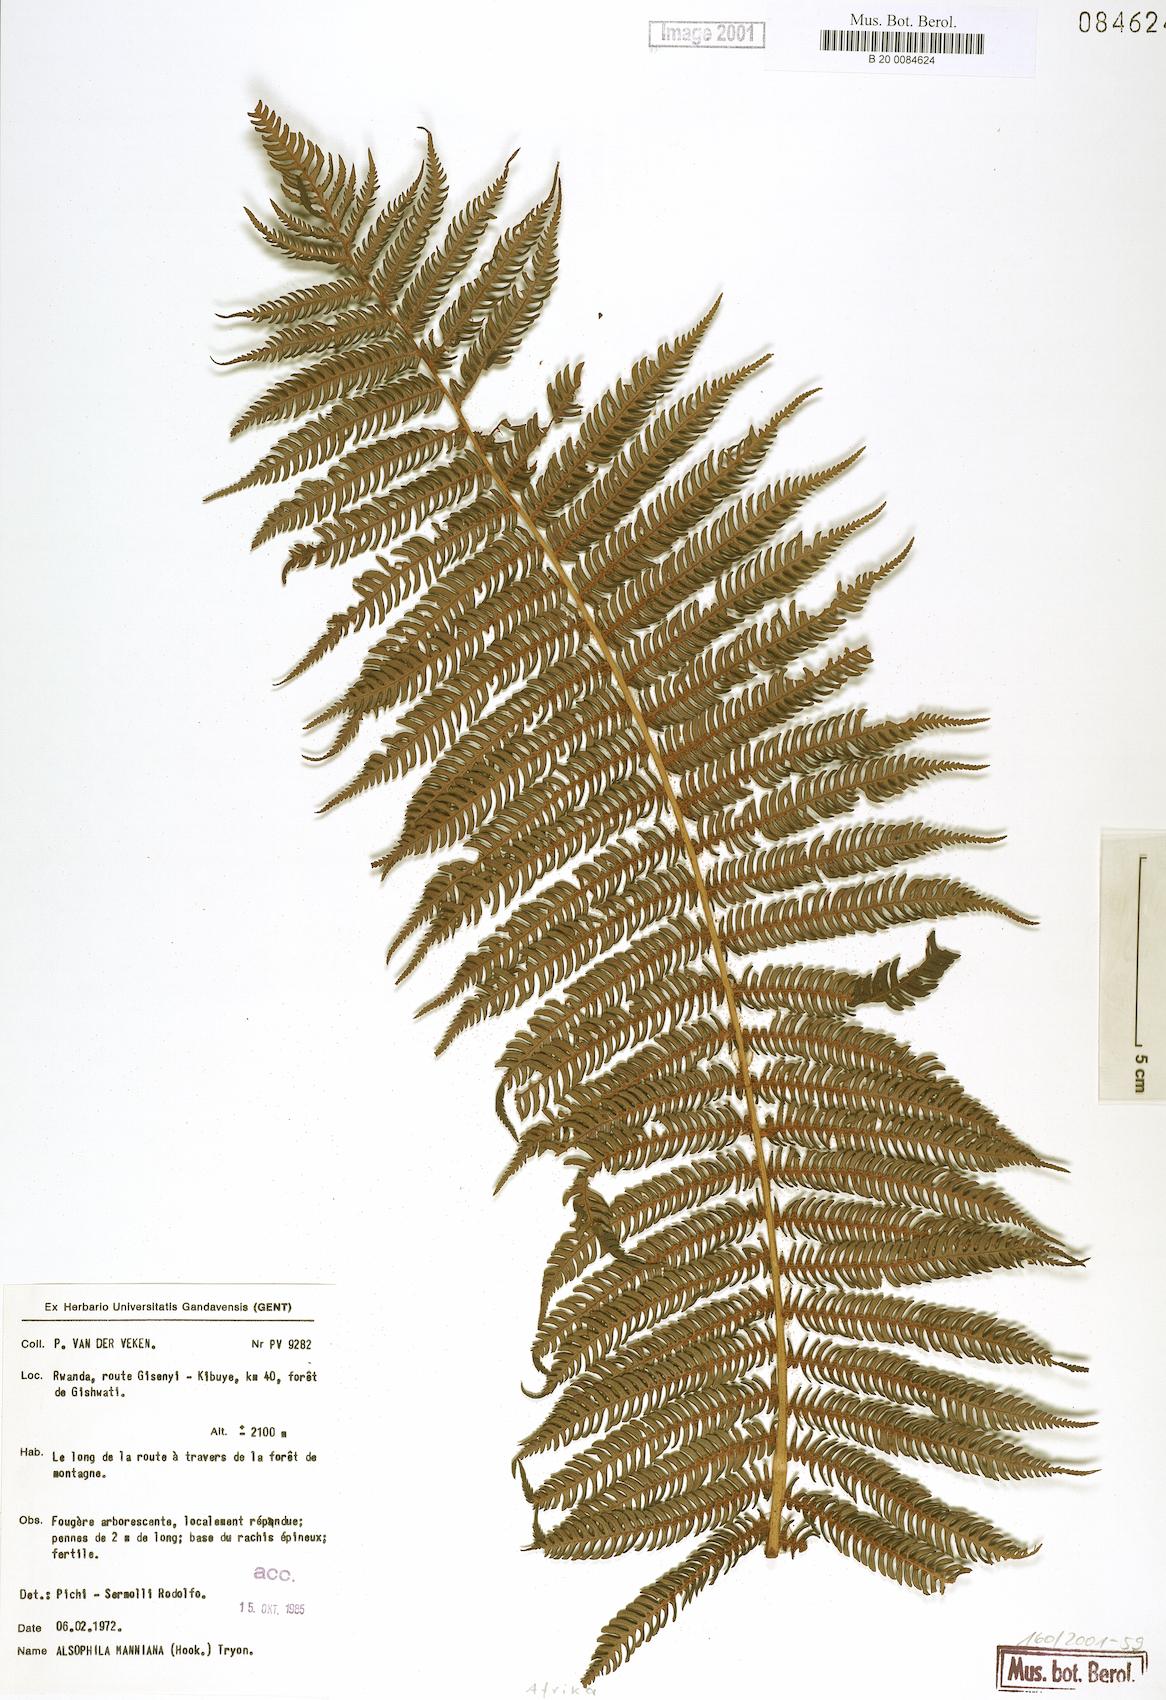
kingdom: Plantae
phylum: Tracheophyta
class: Polypodiopsida
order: Cyatheales
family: Cyatheaceae
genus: Alsophila
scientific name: Alsophila manniana
